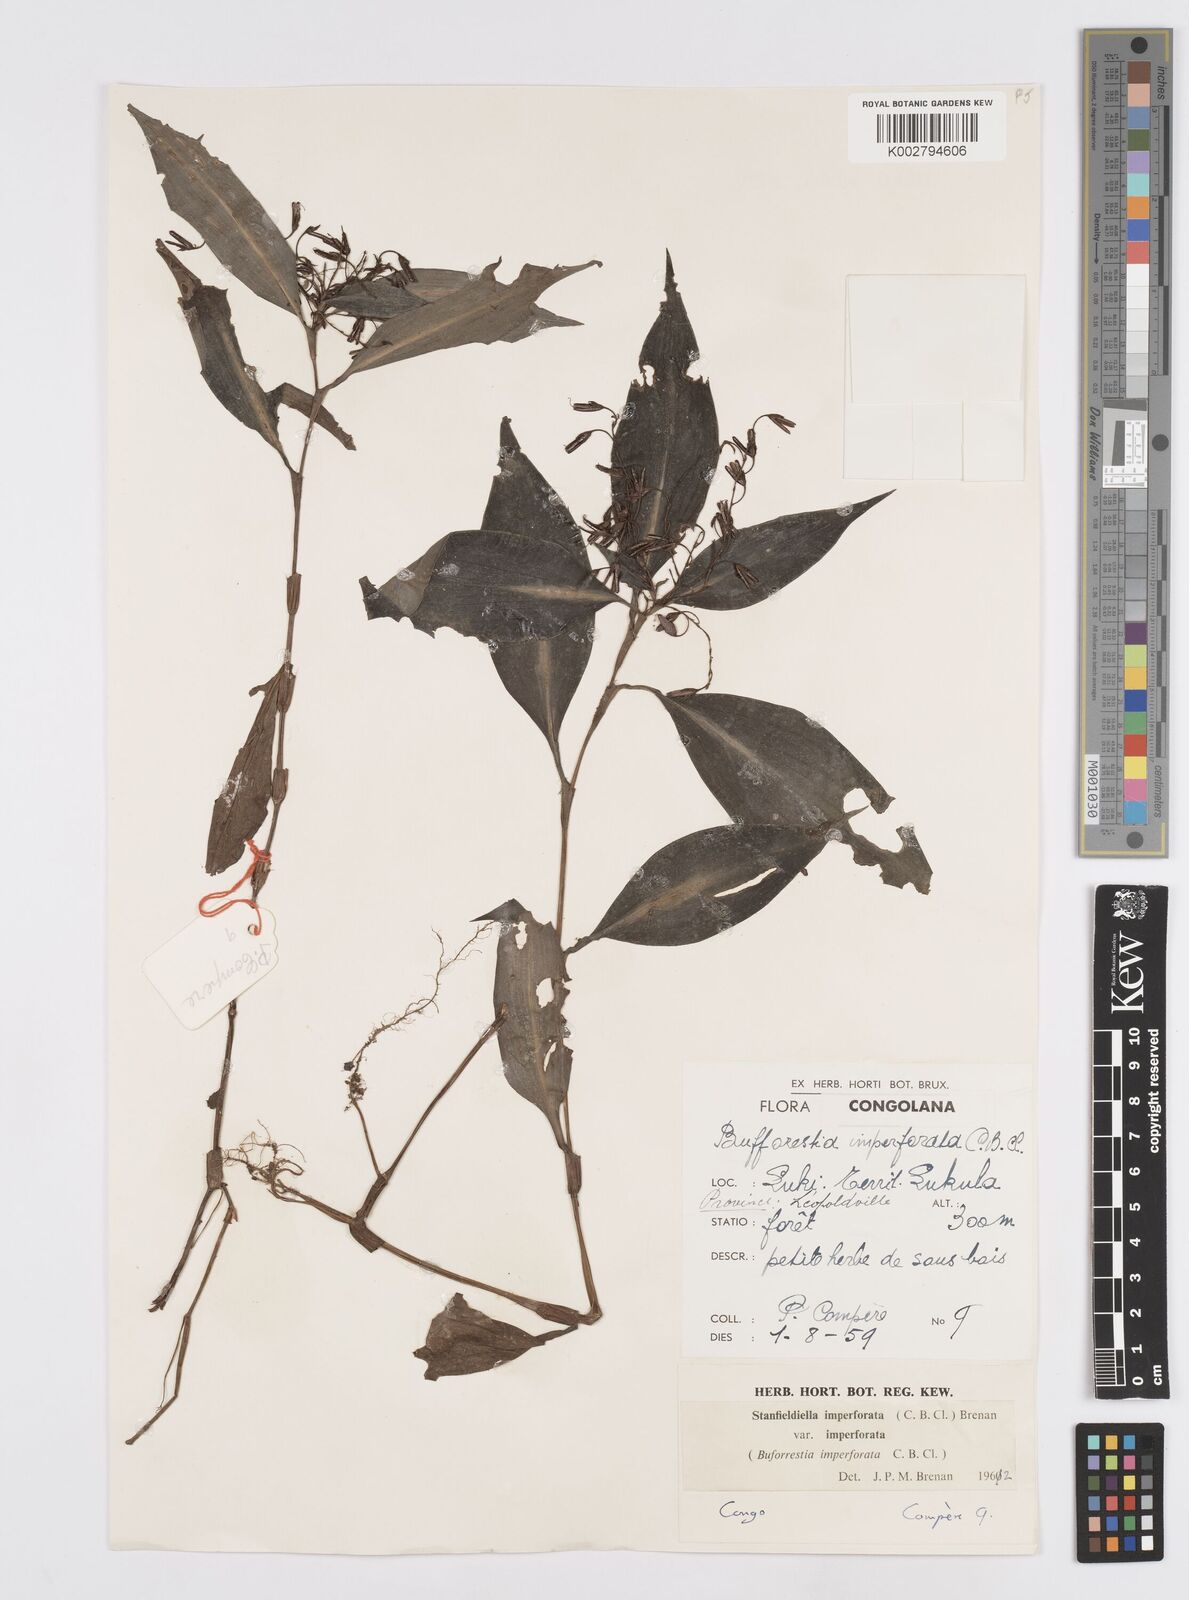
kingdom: Plantae
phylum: Tracheophyta
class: Liliopsida
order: Commelinales
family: Commelinaceae
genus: Stanfieldiella
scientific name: Stanfieldiella imperforata
